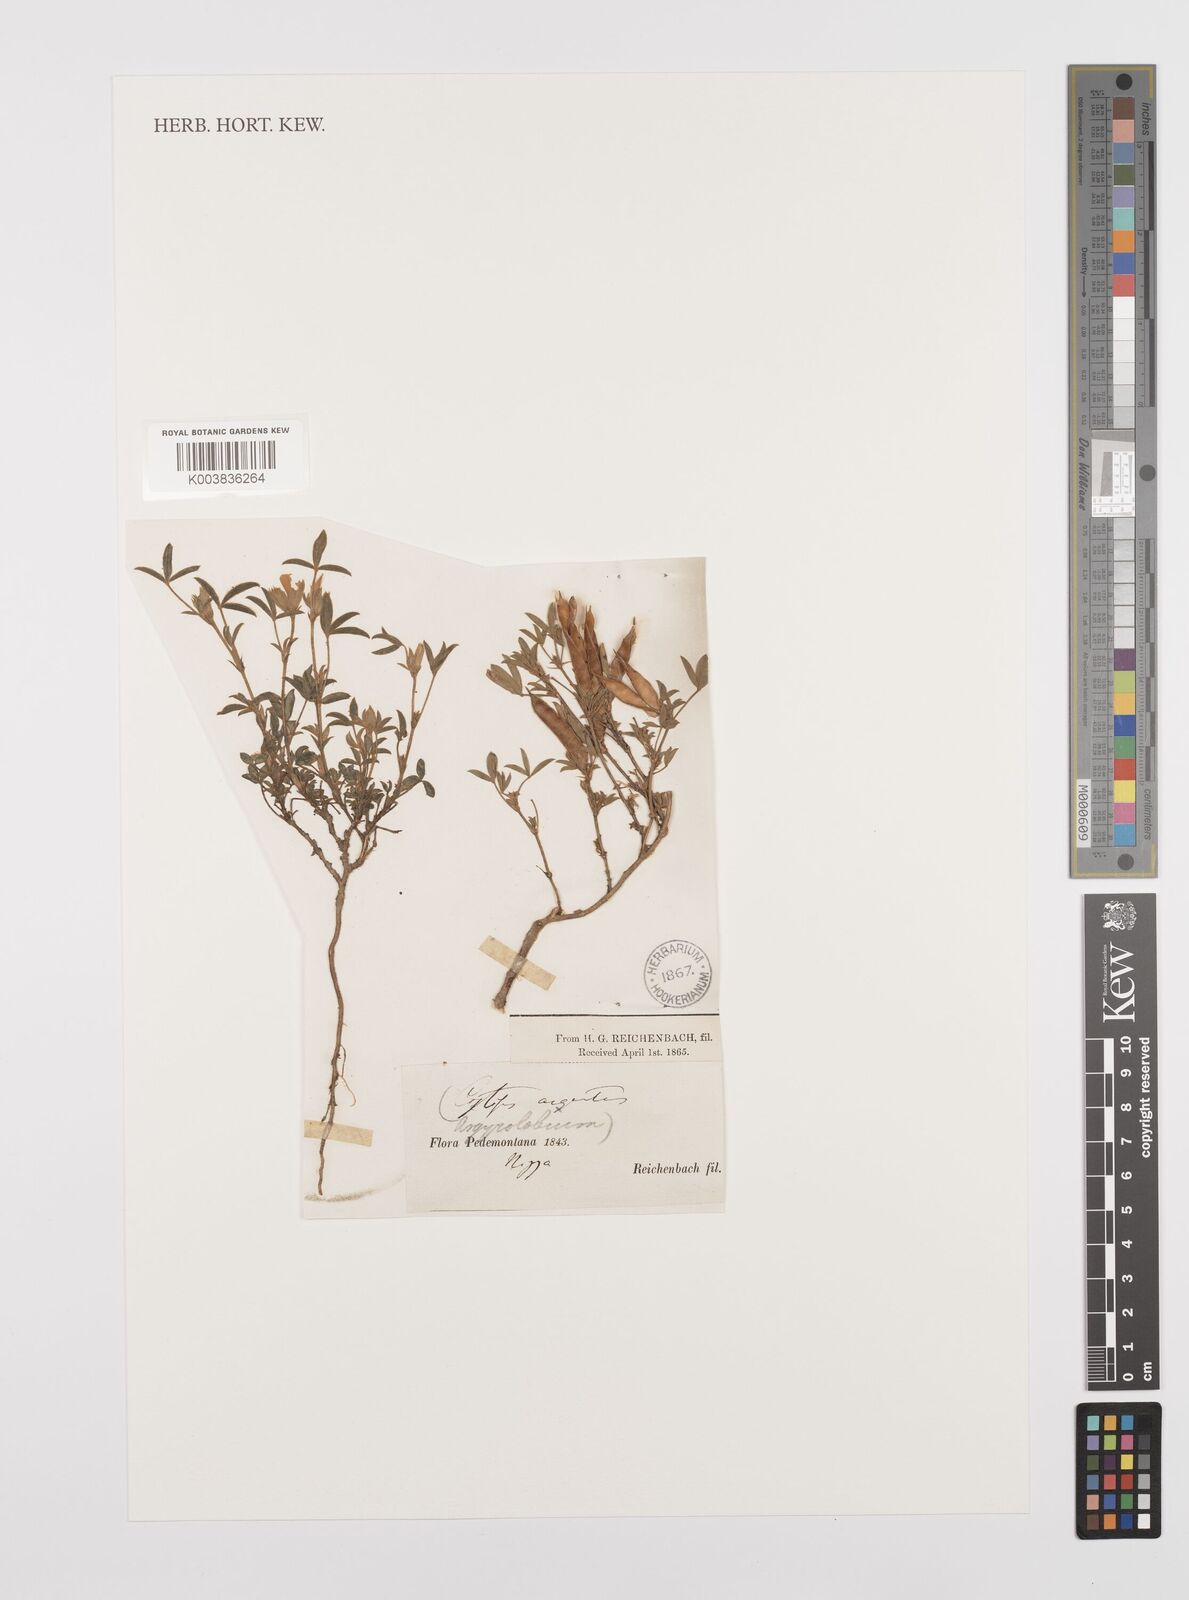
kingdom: Plantae
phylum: Tracheophyta
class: Magnoliopsida
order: Fabales
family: Fabaceae
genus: Argyrolobium
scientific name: Argyrolobium zanonii
